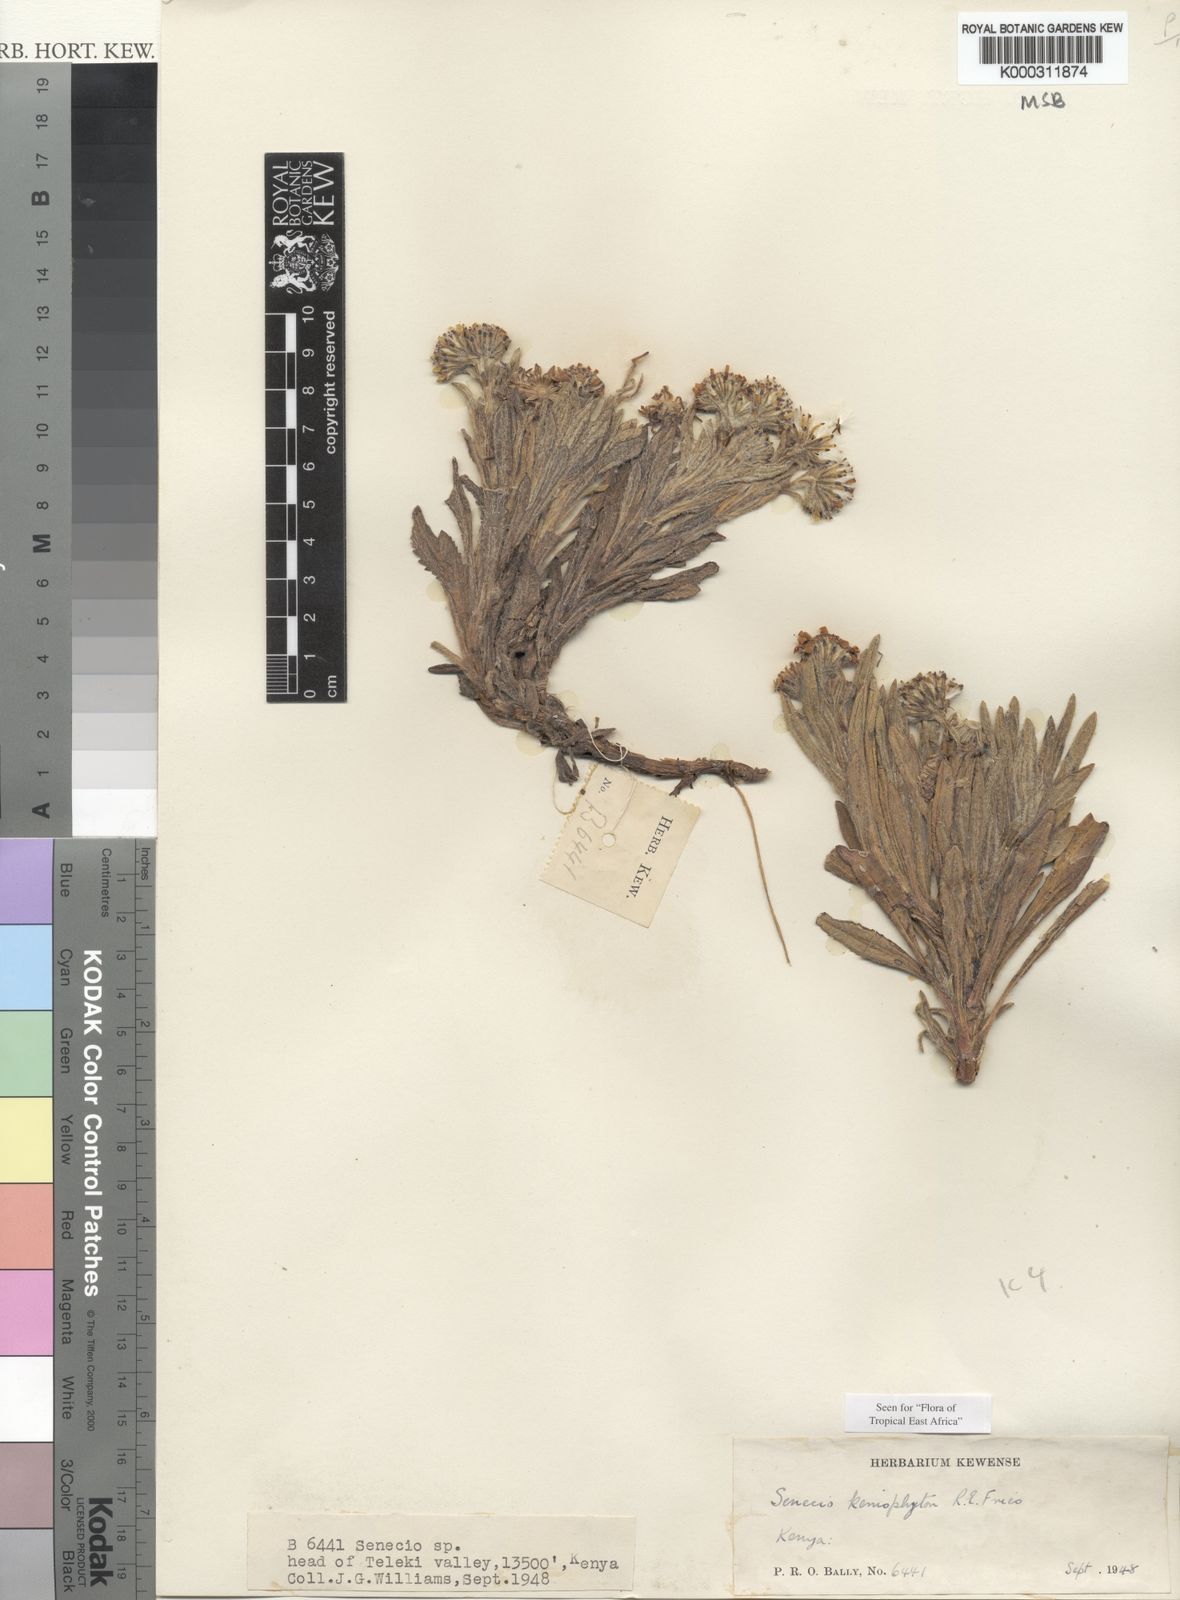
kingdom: Plantae
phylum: Tracheophyta
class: Magnoliopsida
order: Asterales
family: Asteraceae
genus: Senecio
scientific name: Senecio keniophytum
